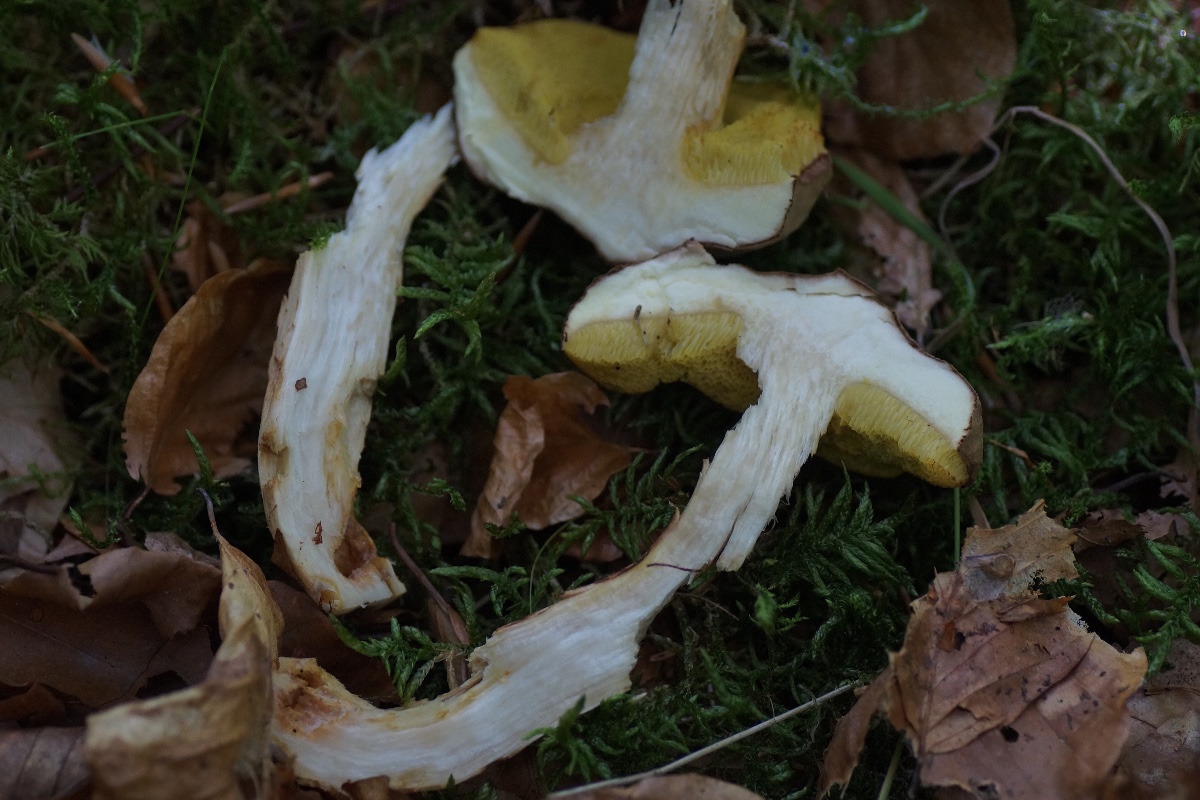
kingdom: Fungi
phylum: Basidiomycota
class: Agaricomycetes
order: Boletales
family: Boletaceae
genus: Xerocomus
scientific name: Xerocomus
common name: filtrørhat
